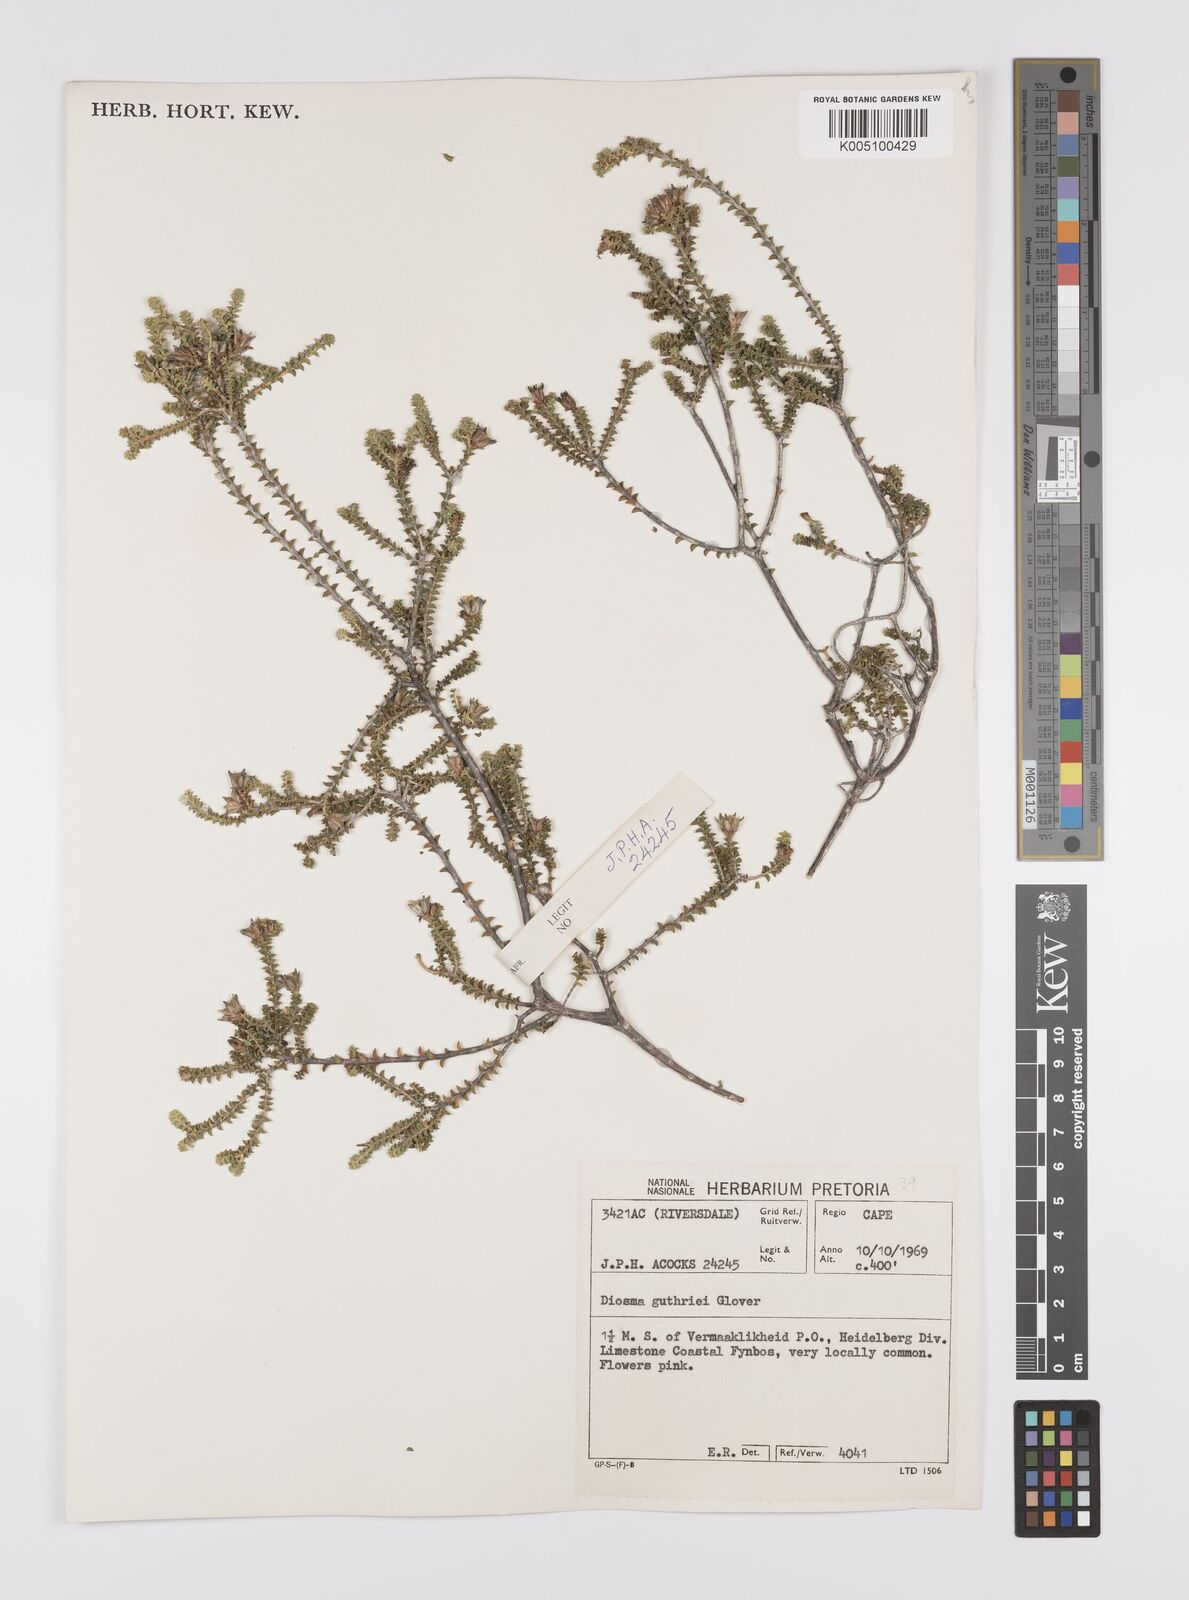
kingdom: Plantae
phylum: Tracheophyta
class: Magnoliopsida
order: Sapindales
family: Rutaceae
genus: Diosma
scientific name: Diosma guthriei
